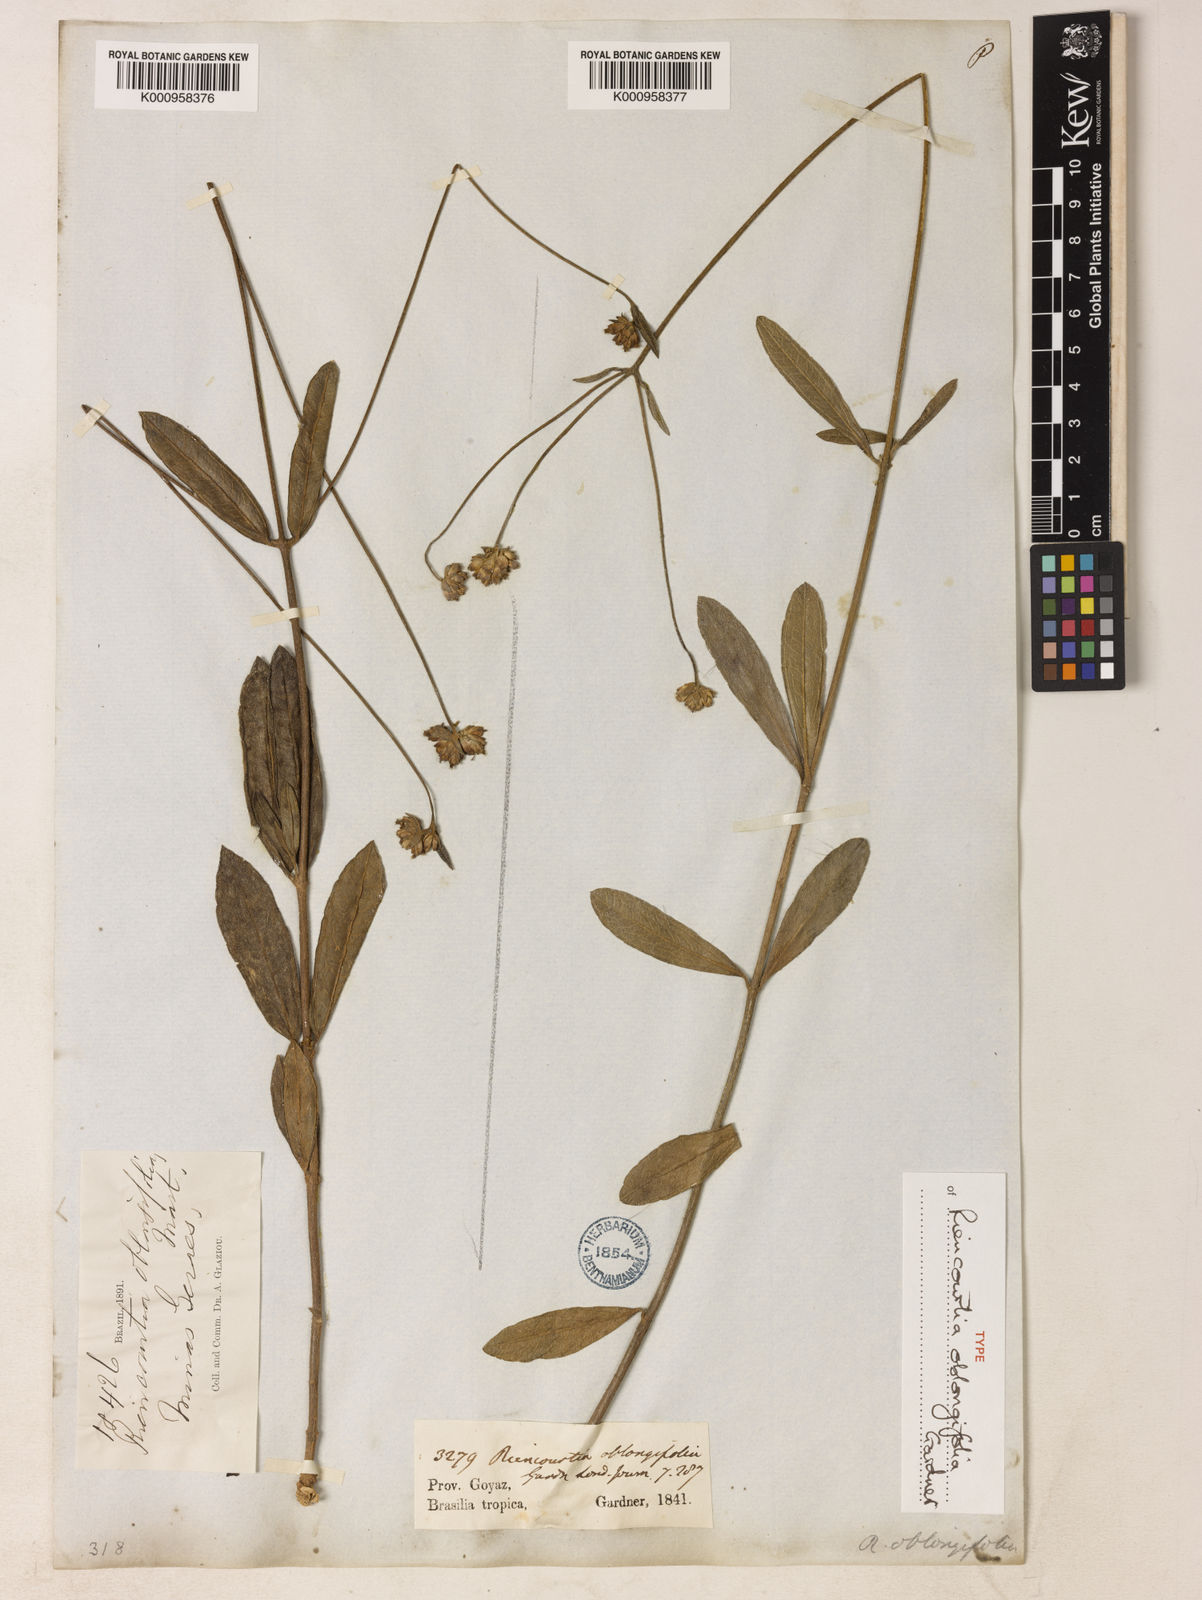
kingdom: Plantae
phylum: Tracheophyta
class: Magnoliopsida
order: Asterales
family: Asteraceae
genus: Riencourtia
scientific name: Riencourtia oblongifolia
